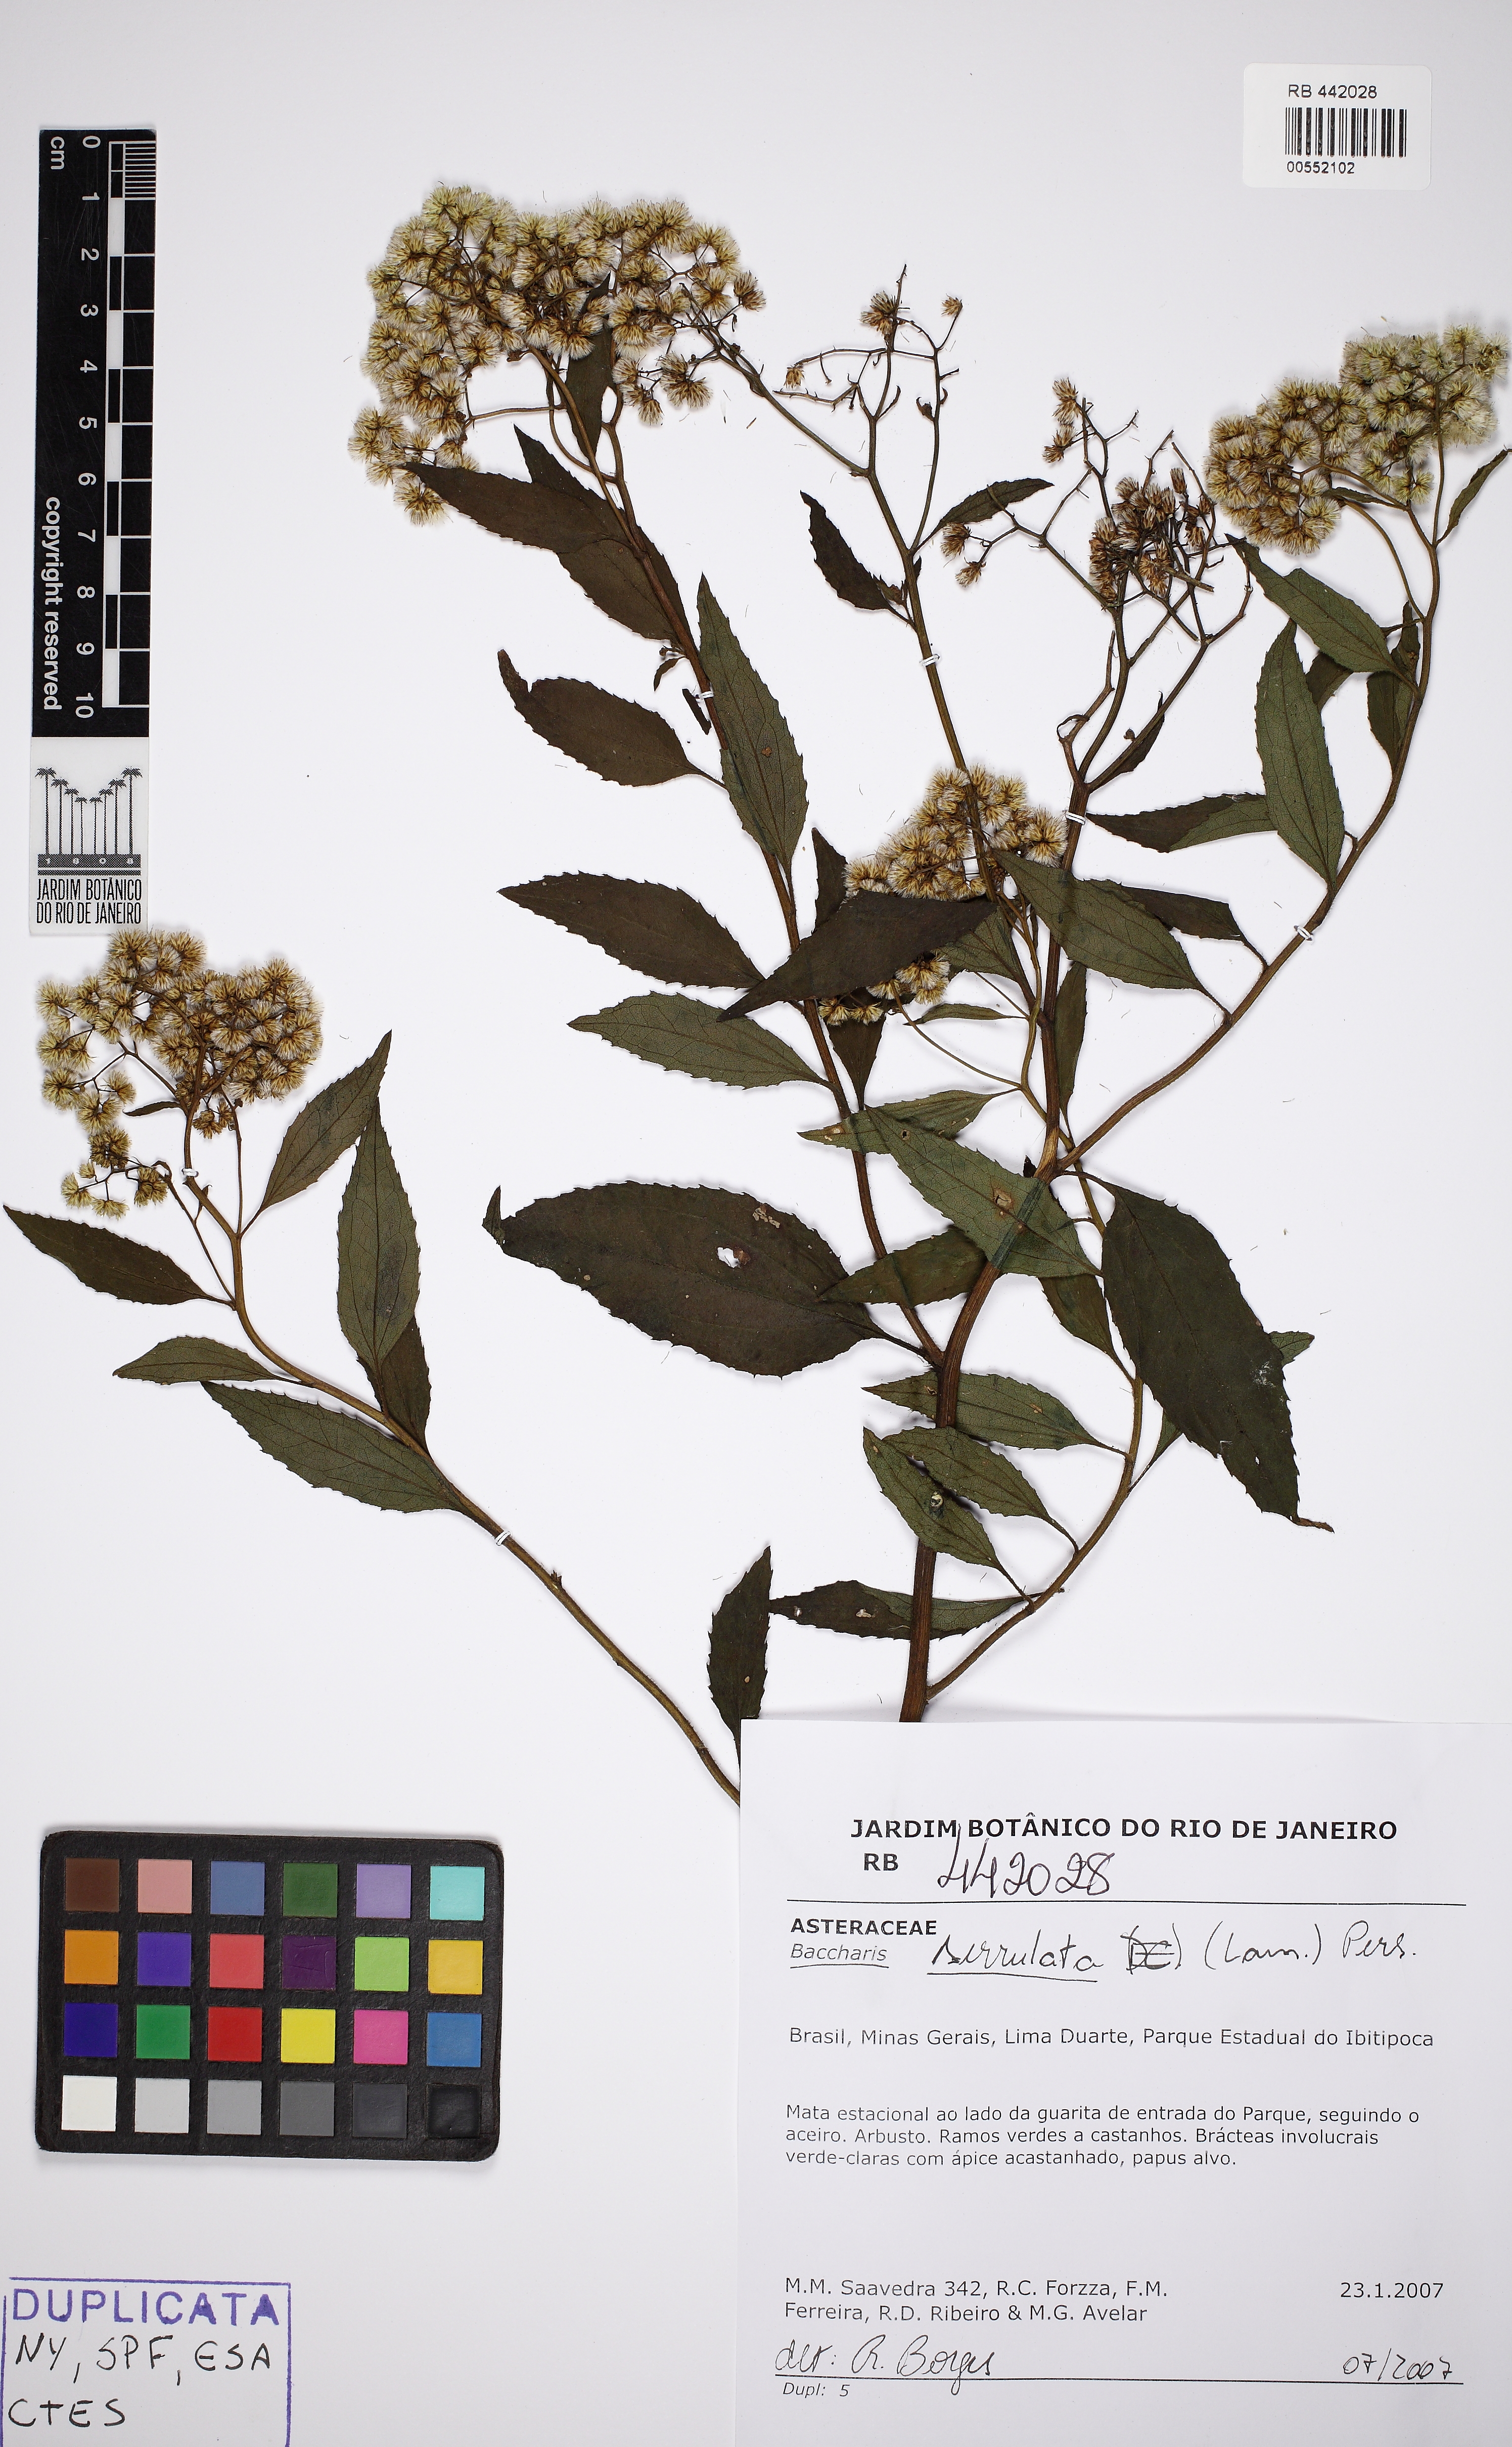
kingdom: Plantae
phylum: Tracheophyta
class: Magnoliopsida
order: Asterales
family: Asteraceae
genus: Baccharis
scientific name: Baccharis serrulata
